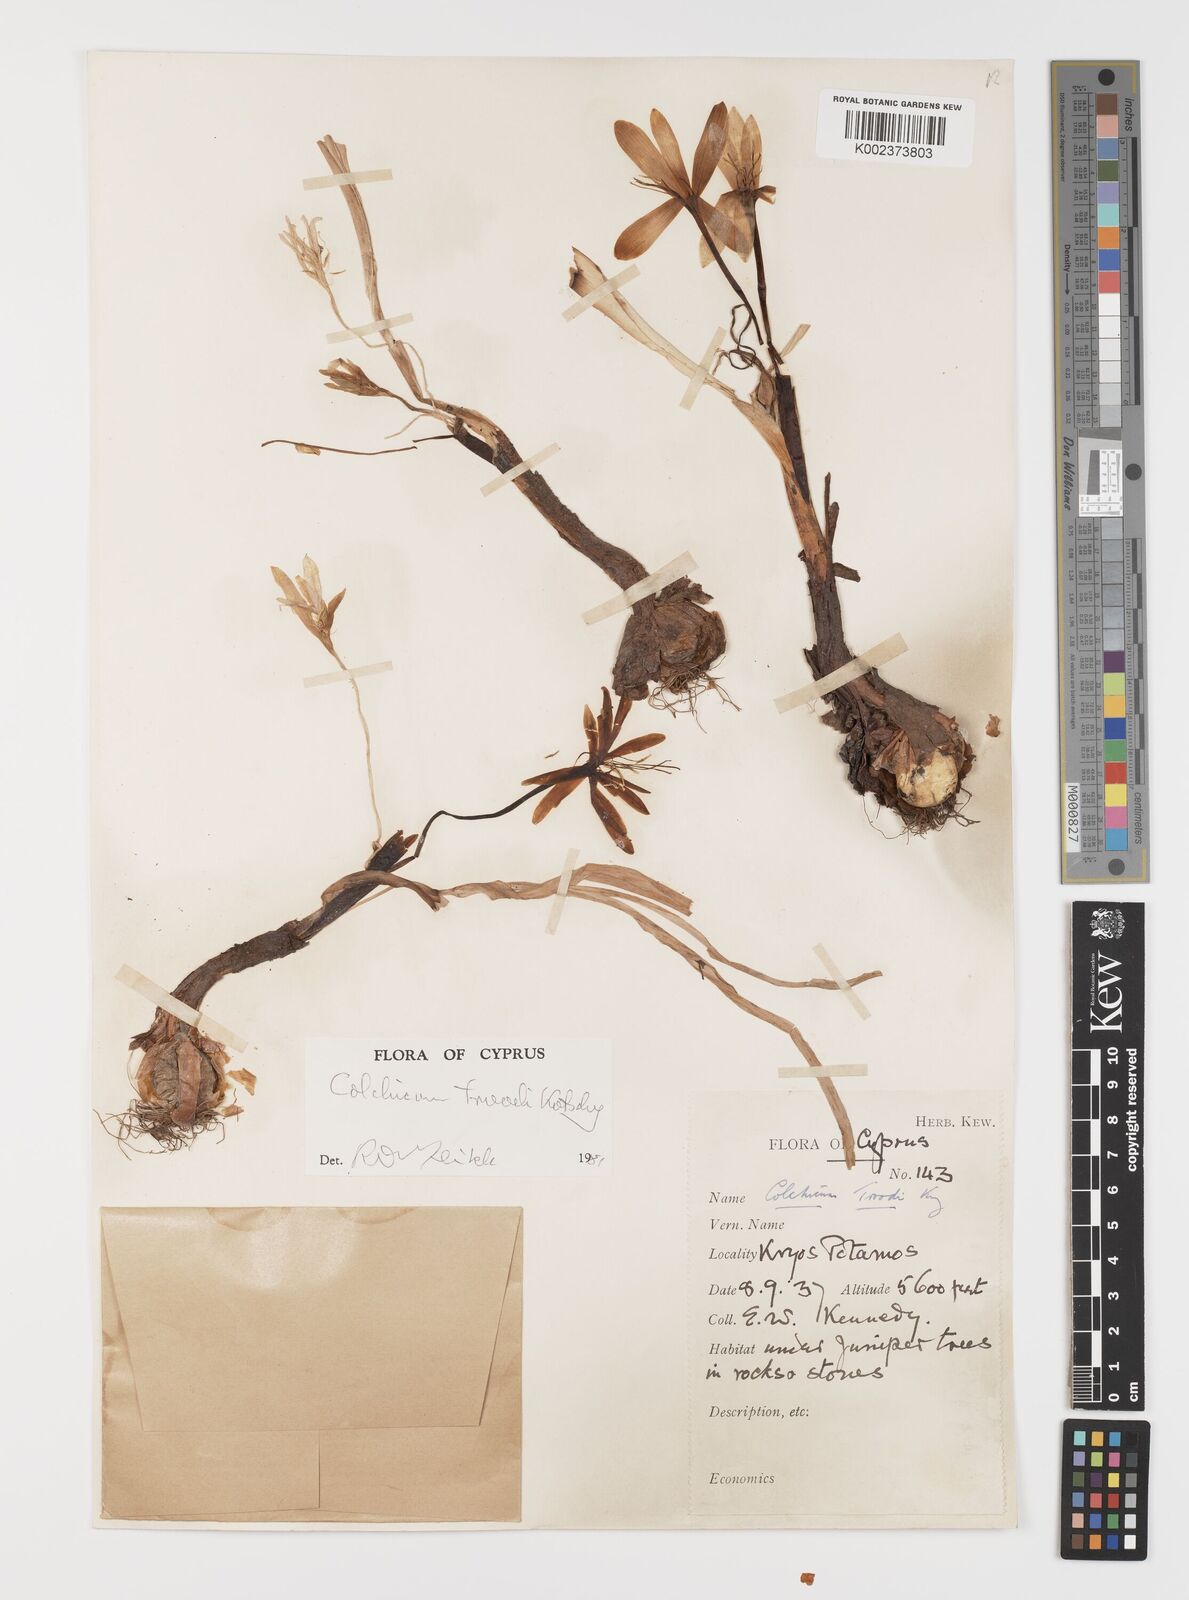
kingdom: Plantae
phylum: Tracheophyta
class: Liliopsida
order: Liliales
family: Colchicaceae
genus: Colchicum
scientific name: Colchicum troodi
